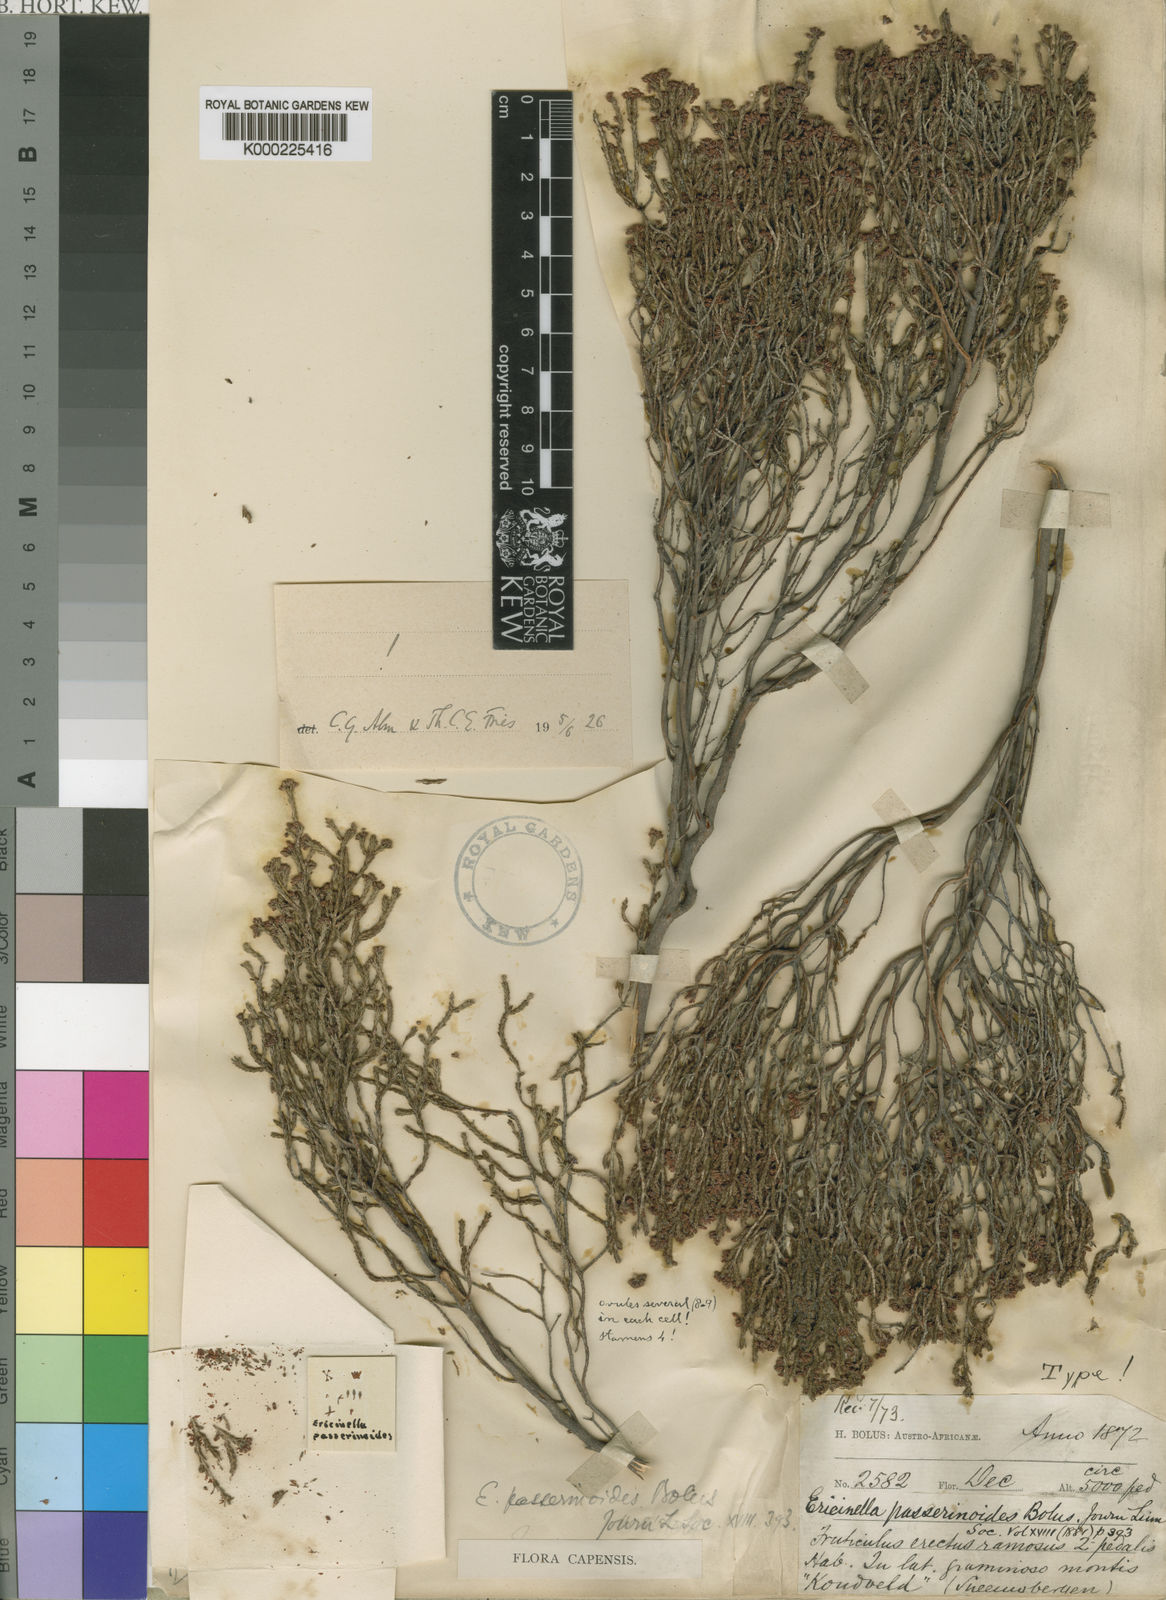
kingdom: Plantae
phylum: Tracheophyta
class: Magnoliopsida
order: Ericales
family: Ericaceae
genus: Erica
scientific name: Erica passerinoides
